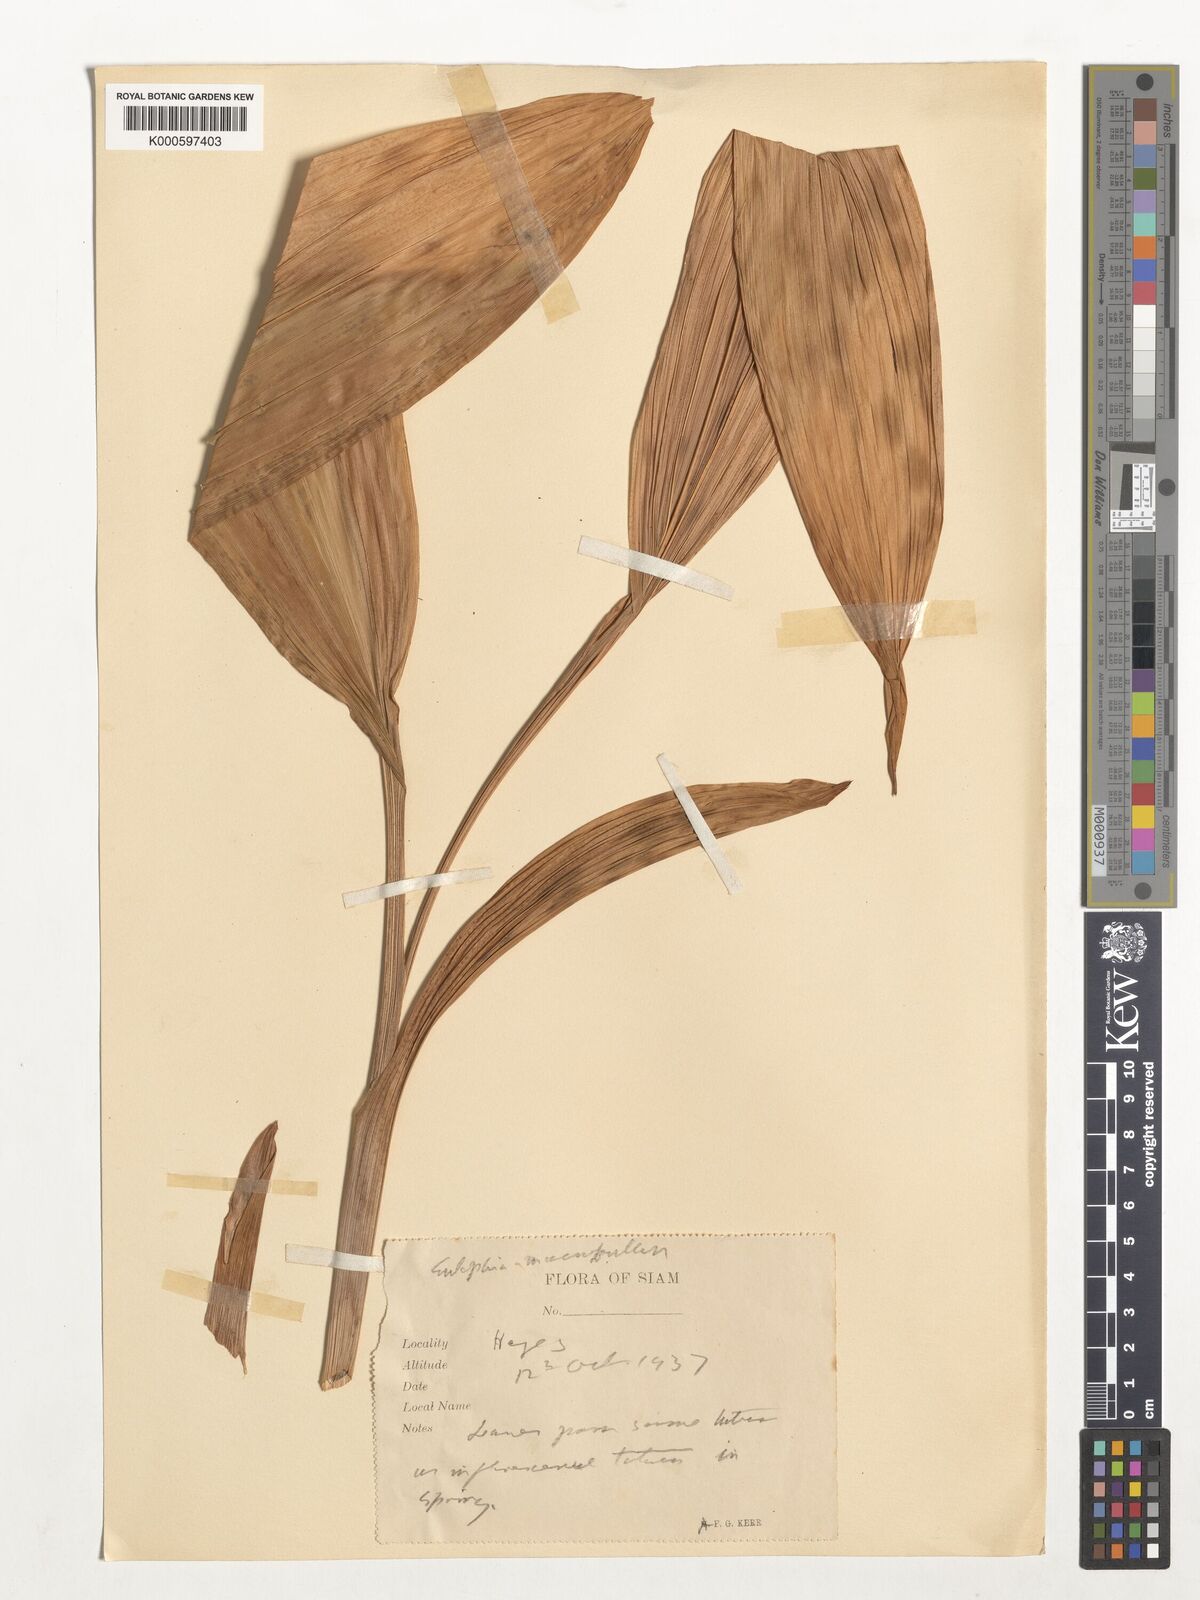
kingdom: Plantae
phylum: Tracheophyta
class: Liliopsida
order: Asparagales
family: Orchidaceae
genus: Eulophia
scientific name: Eulophia macrobulbon
